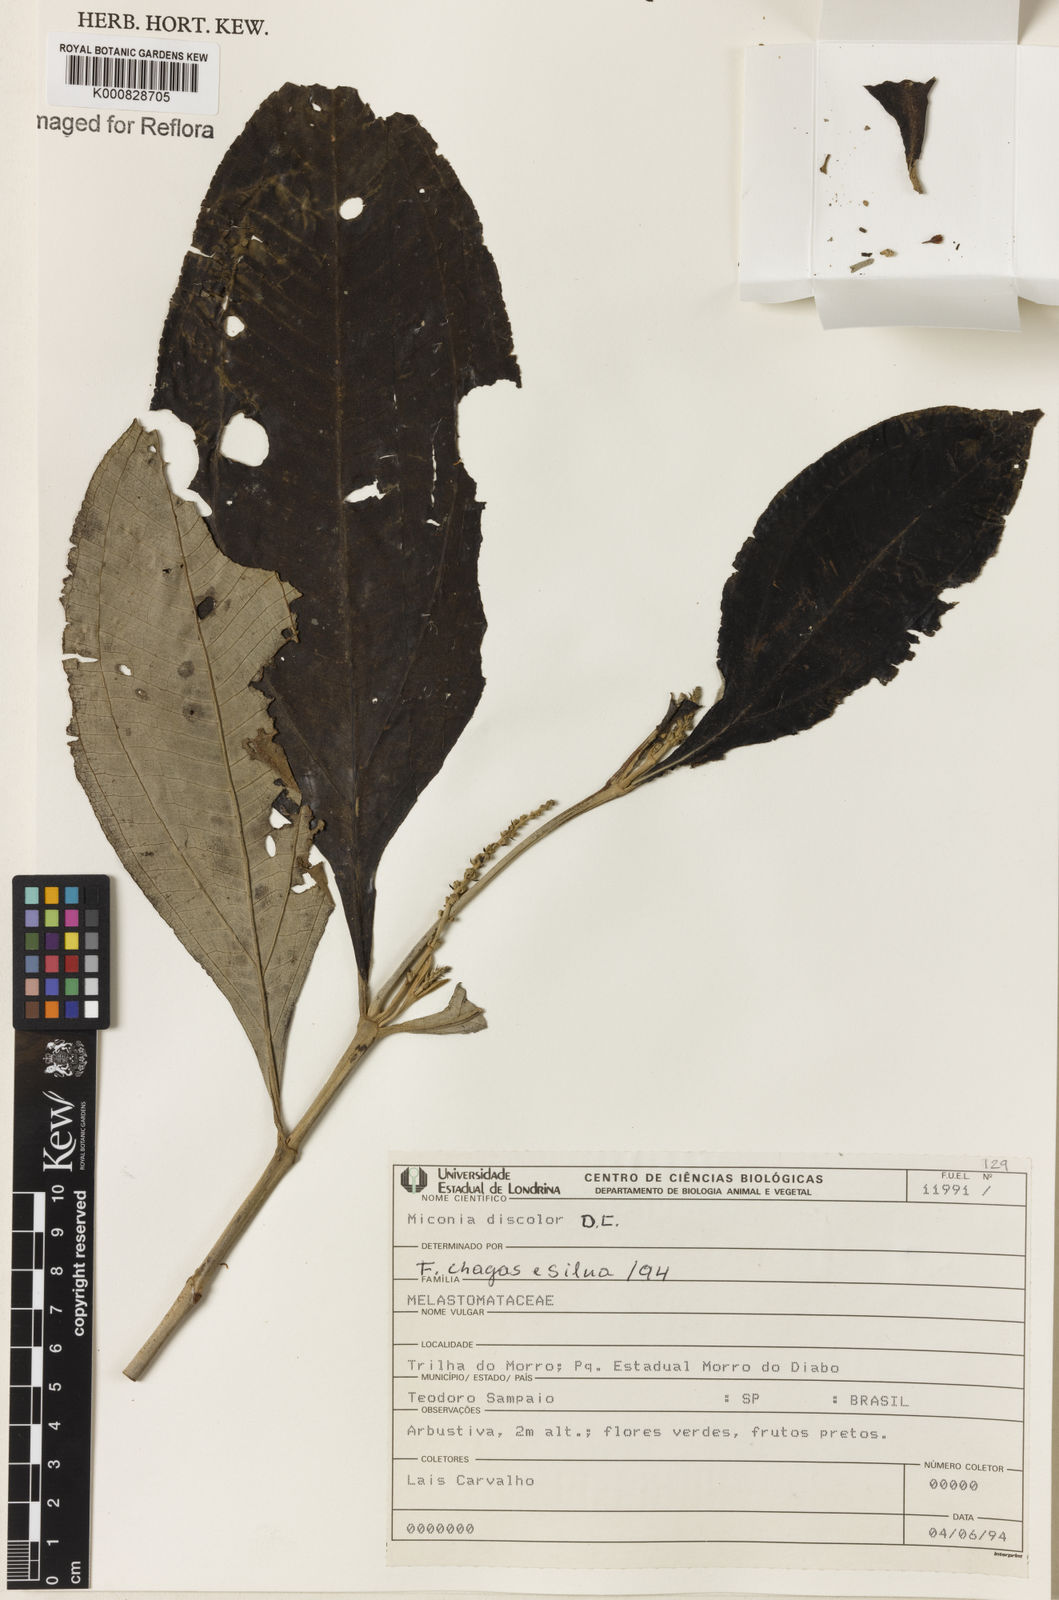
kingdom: Plantae
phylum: Tracheophyta
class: Magnoliopsida
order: Myrtales
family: Melastomataceae
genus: Miconia
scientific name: Miconia discolor
